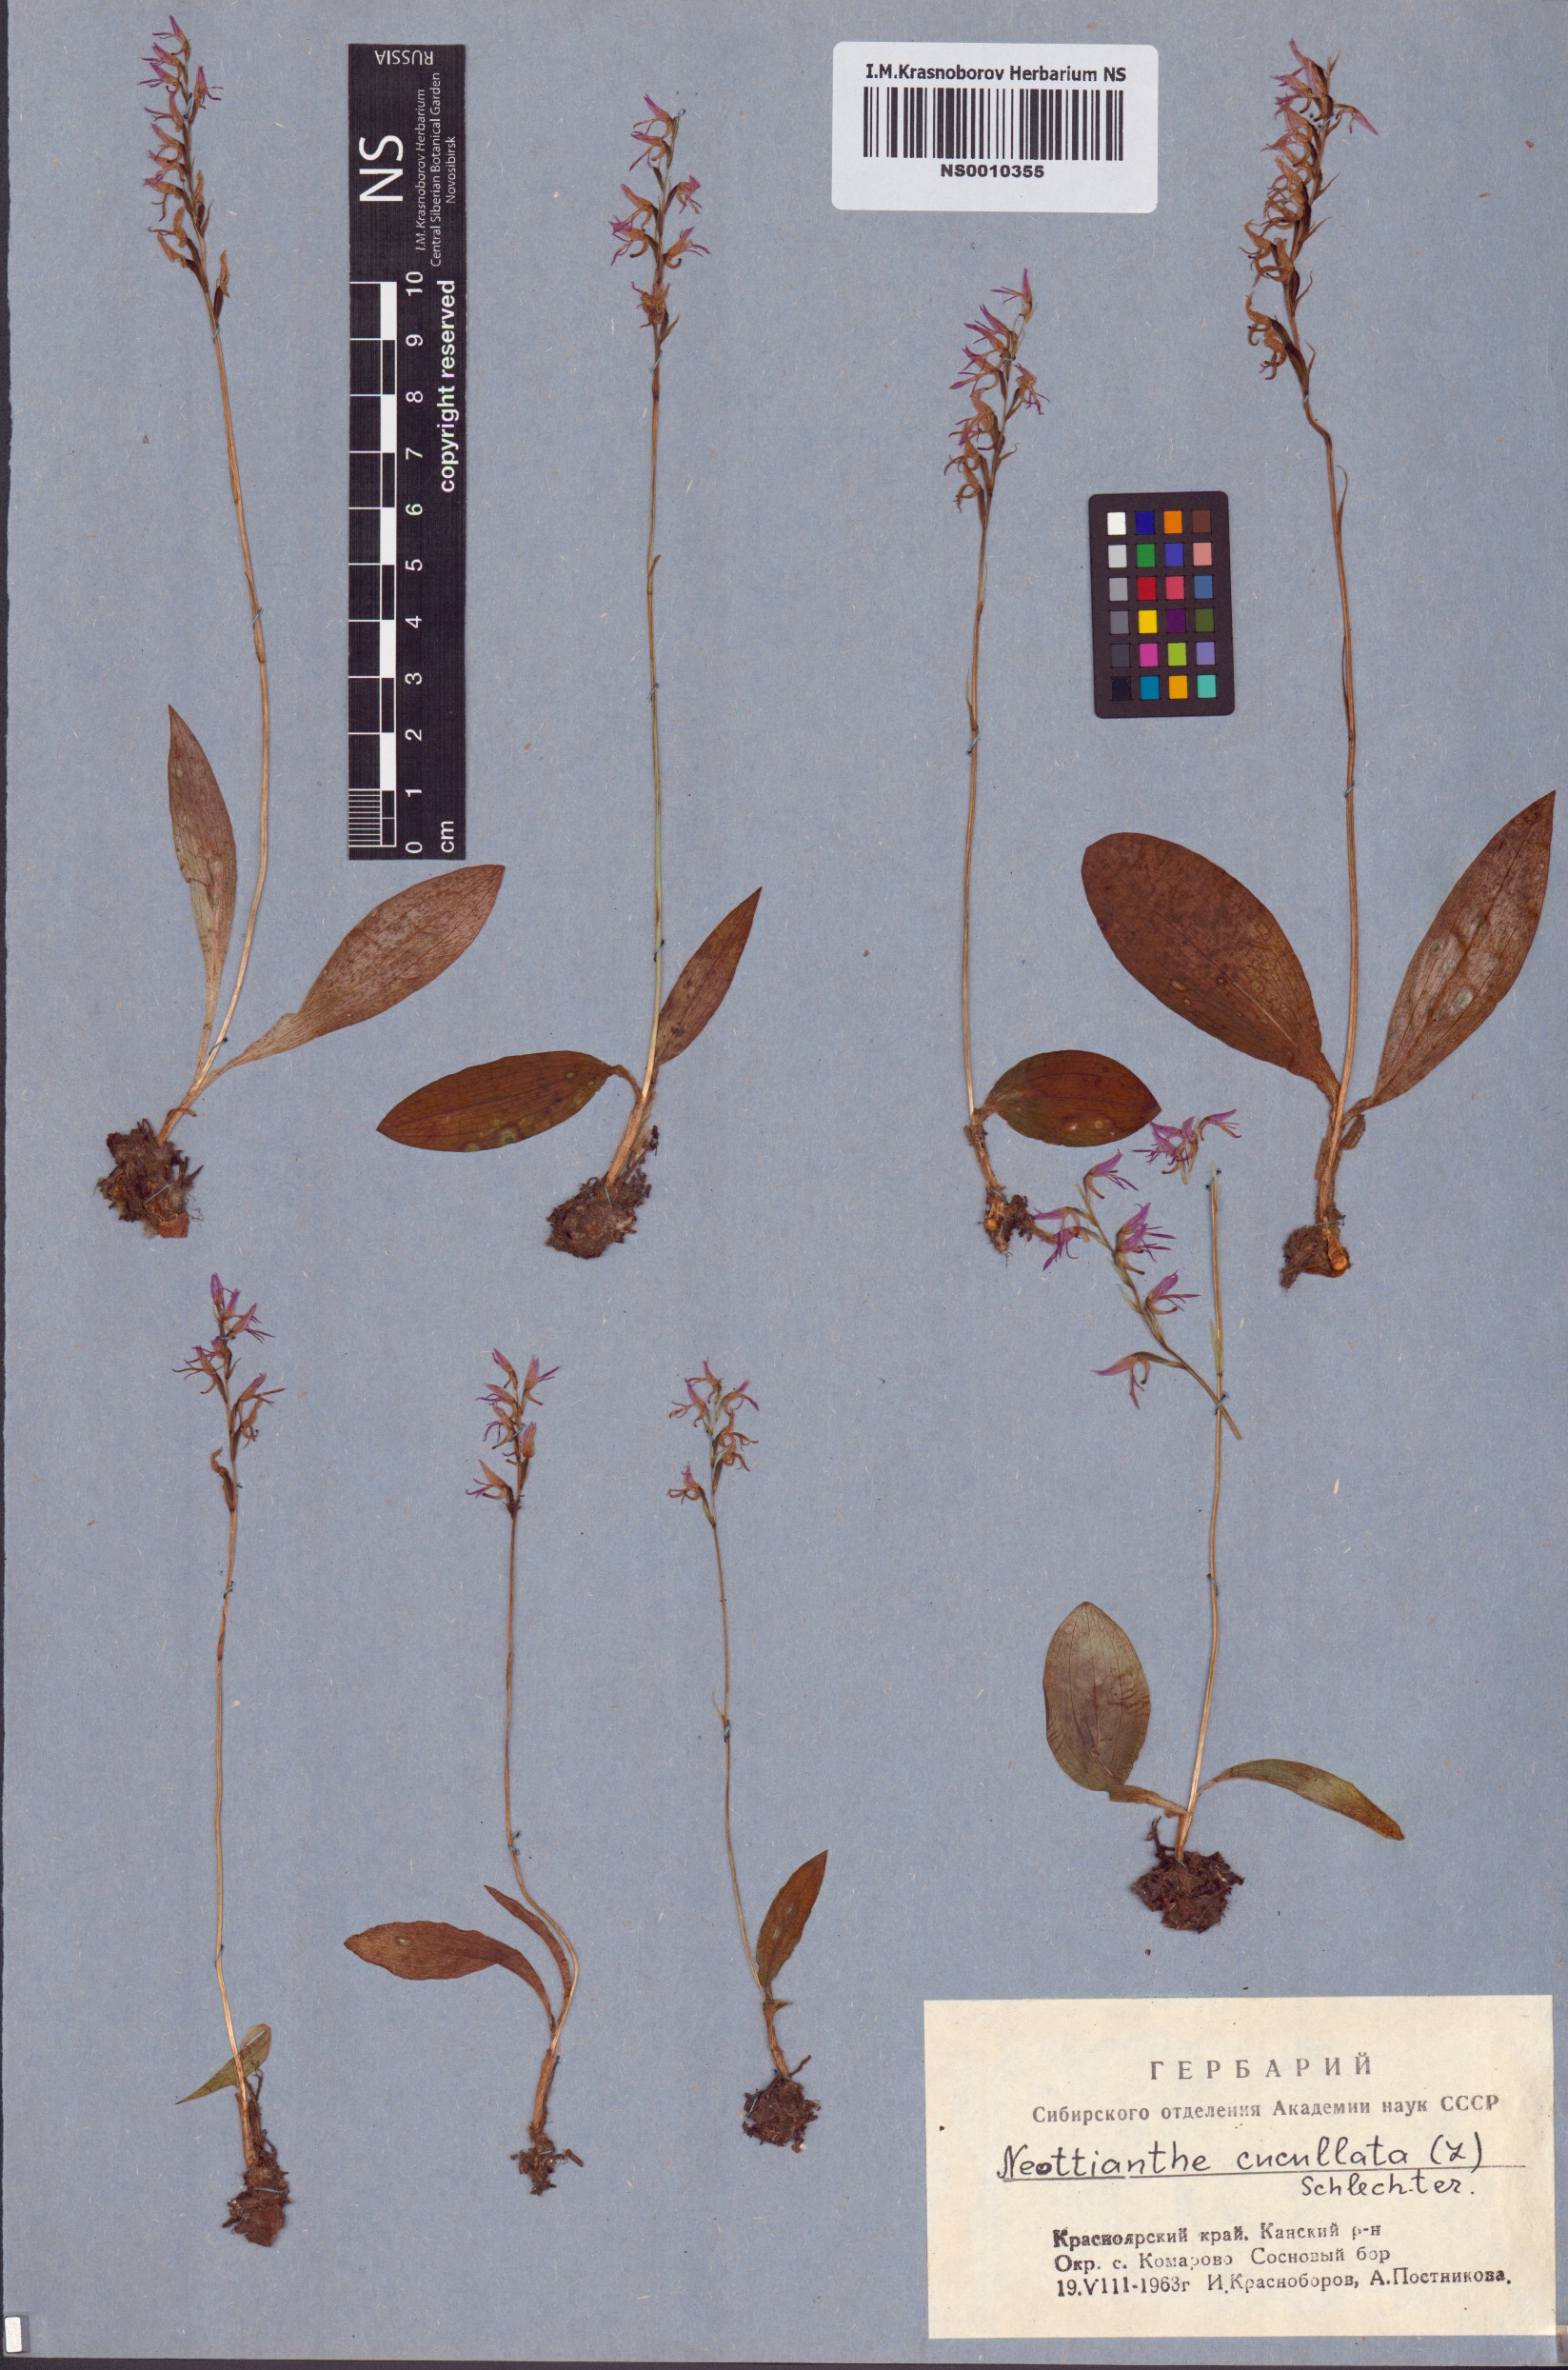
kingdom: Plantae
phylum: Tracheophyta
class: Liliopsida
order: Asparagales
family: Orchidaceae
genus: Hemipilia
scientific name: Hemipilia cucullata
